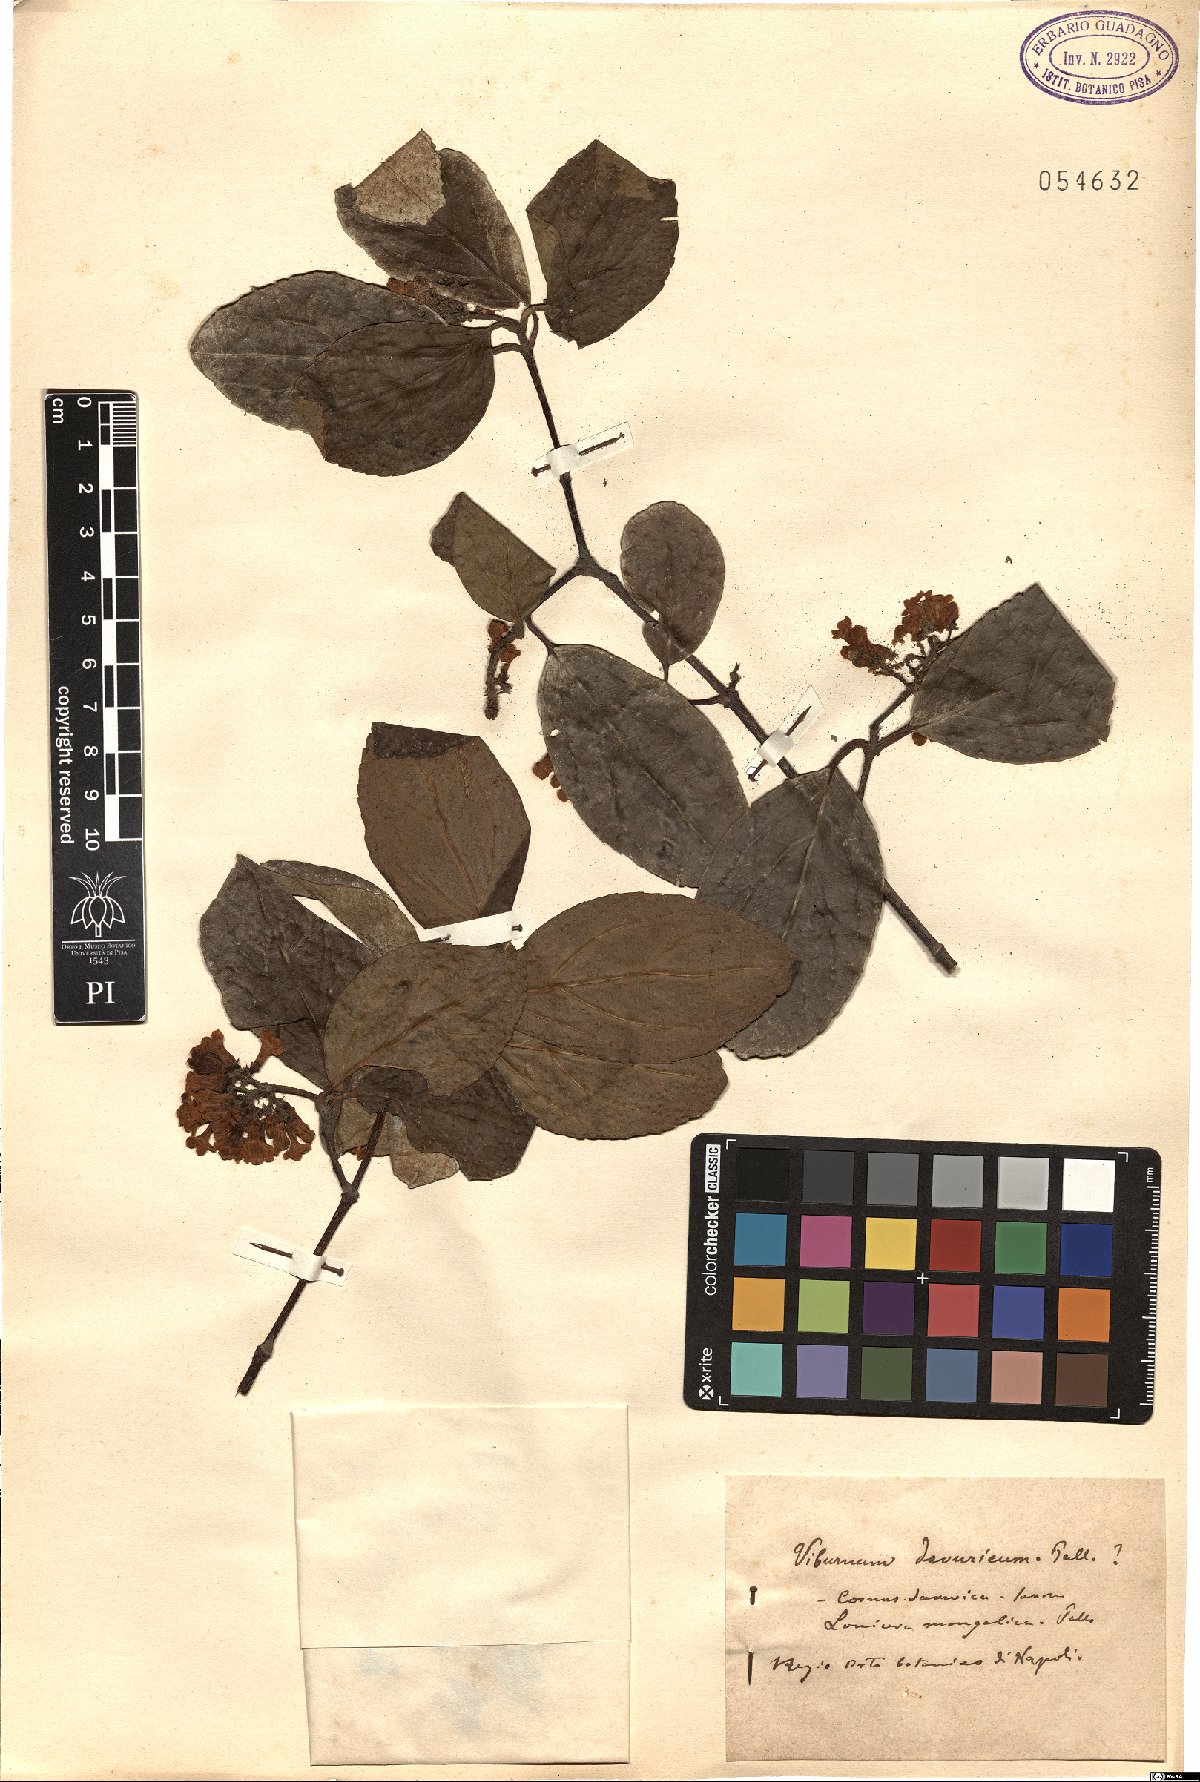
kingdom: Plantae
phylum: Tracheophyta
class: Magnoliopsida
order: Dipsacales
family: Viburnaceae
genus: Viburnum
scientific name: Viburnum burejaeticum
